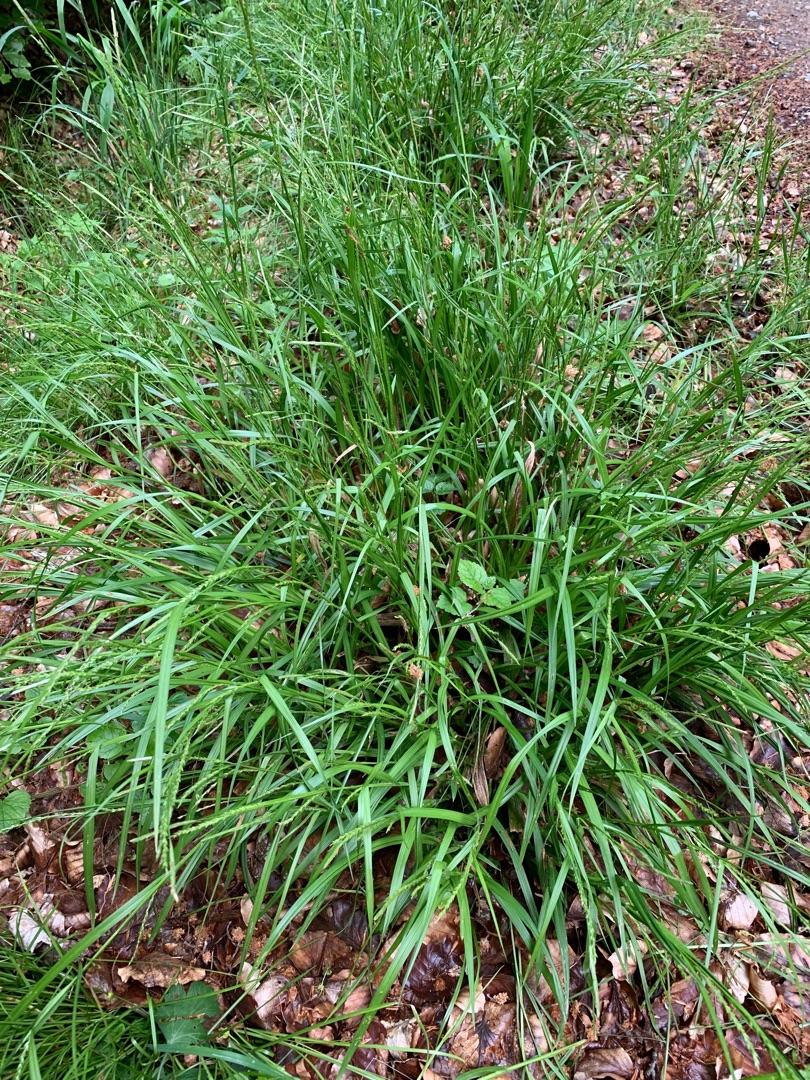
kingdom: Plantae
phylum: Tracheophyta
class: Liliopsida
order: Poales
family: Cyperaceae
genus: Carex
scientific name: Carex strigosa
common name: Tyndakset star
